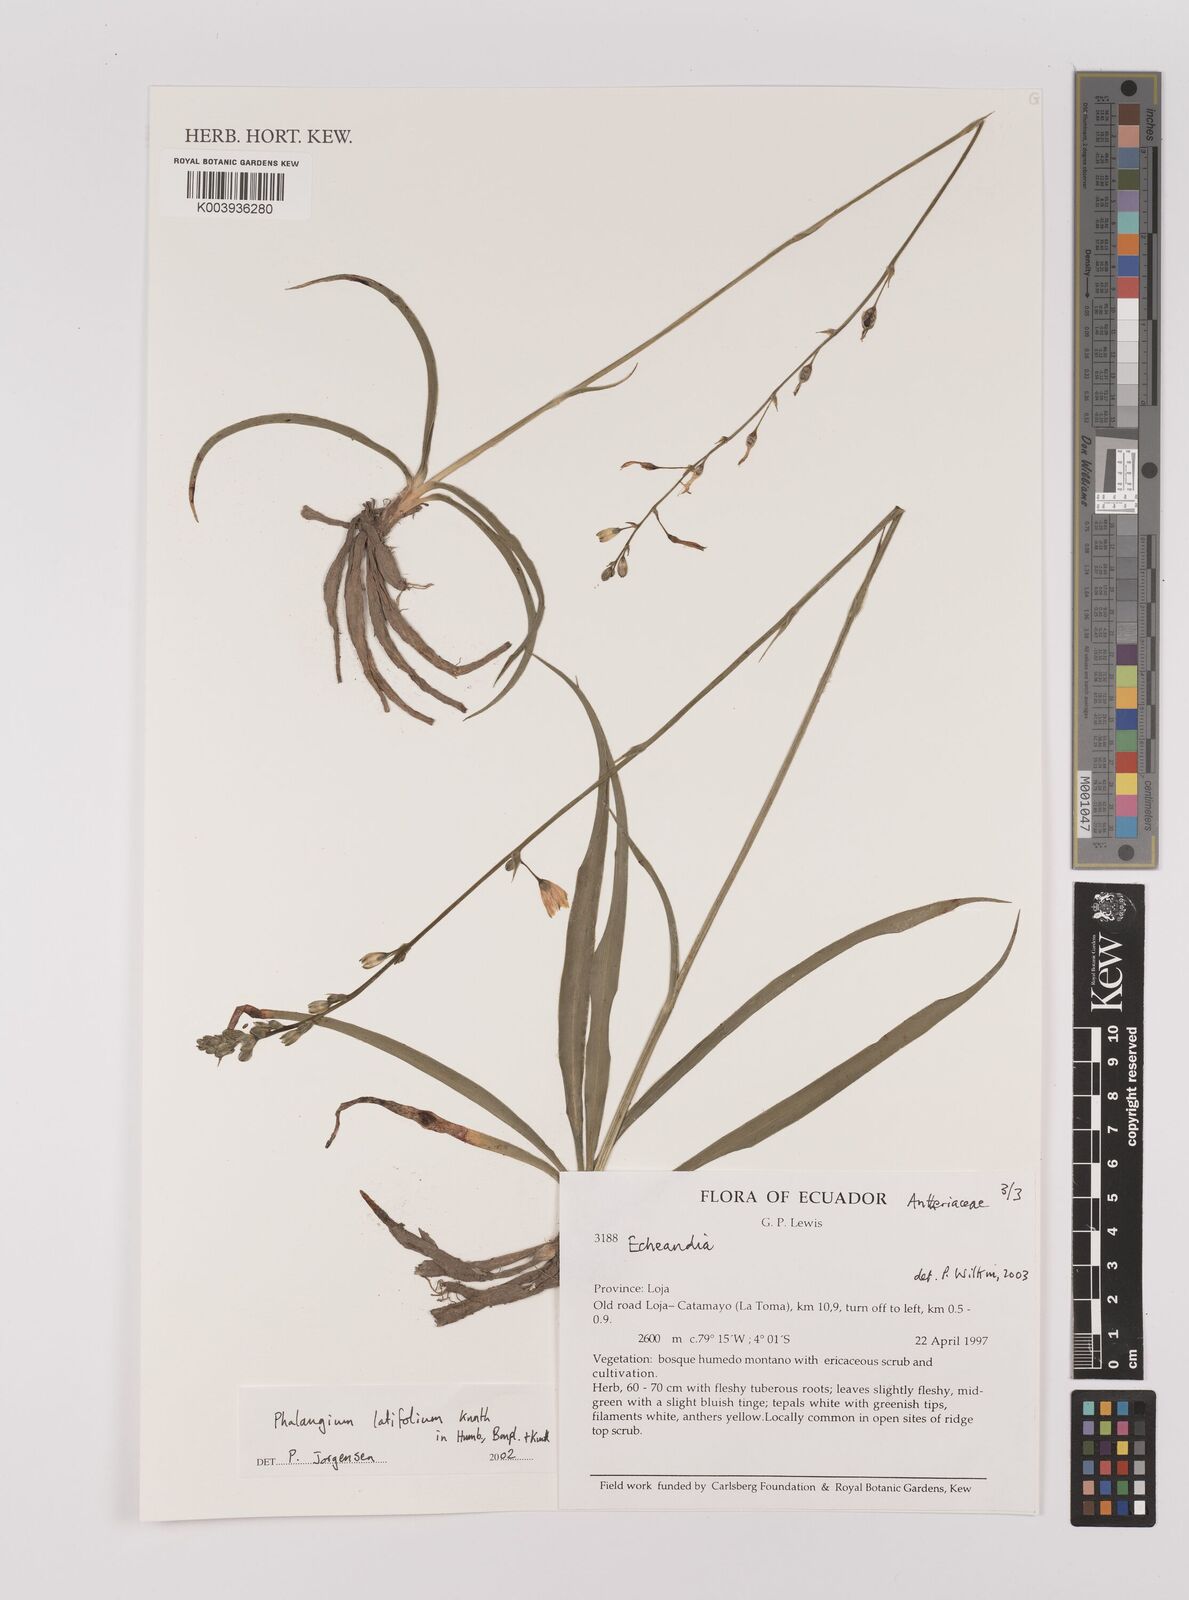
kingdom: Plantae
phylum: Tracheophyta
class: Liliopsida
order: Asparagales
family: Asparagaceae
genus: Echeandia
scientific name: Echeandia
